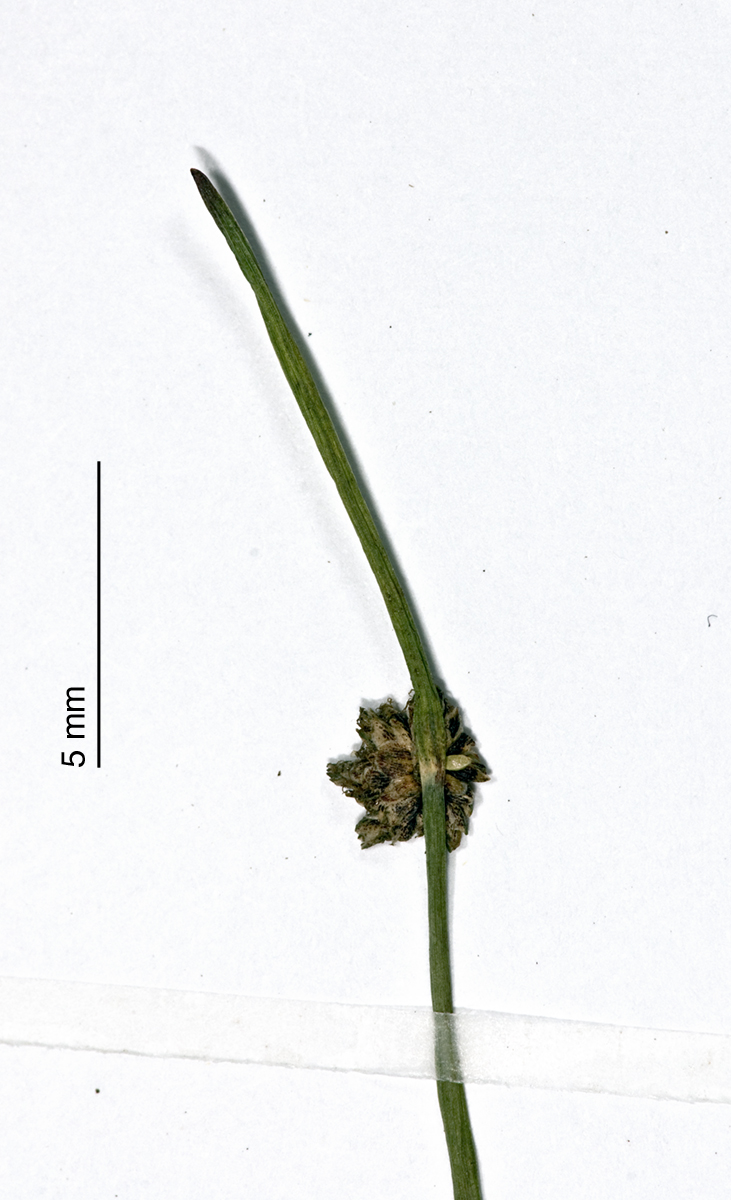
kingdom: Plantae
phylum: Tracheophyta
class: Liliopsida
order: Poales
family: Cyperaceae
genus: Isolepis
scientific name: Isolepis habra
